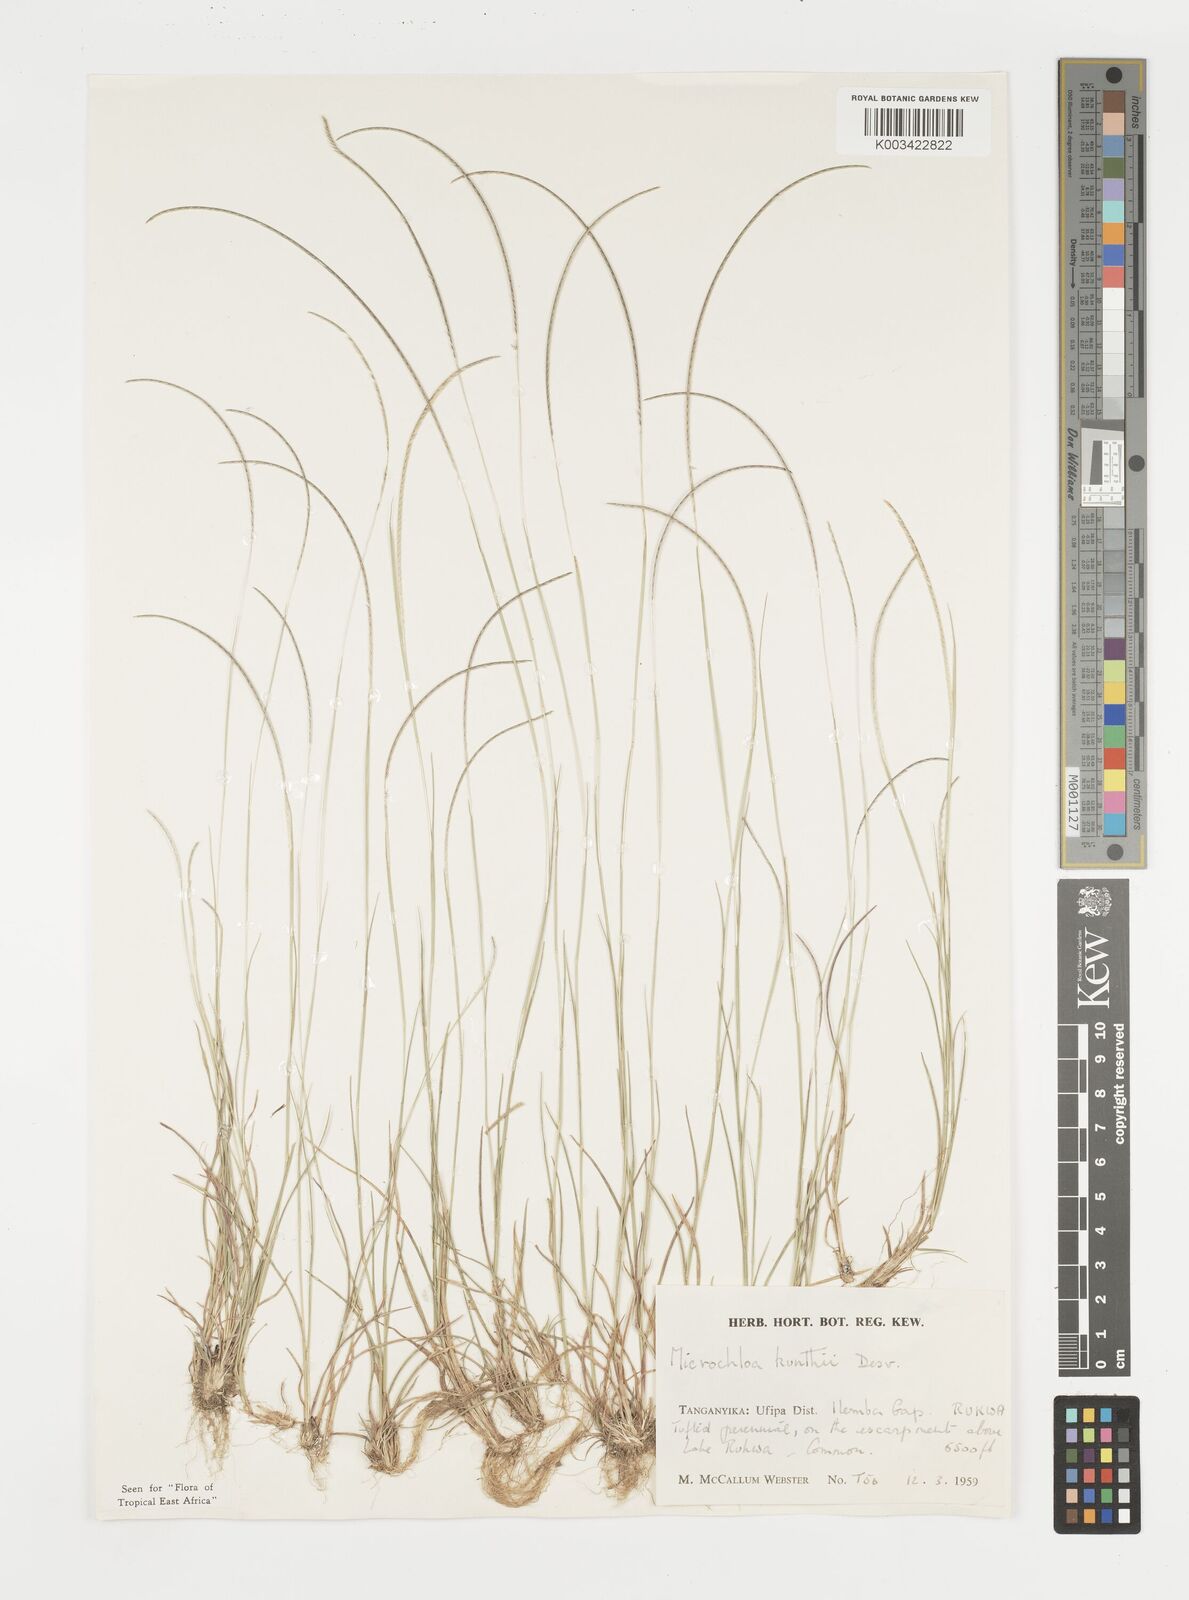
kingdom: Plantae
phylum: Tracheophyta
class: Liliopsida
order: Poales
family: Poaceae
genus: Microchloa
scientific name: Microchloa kunthii
